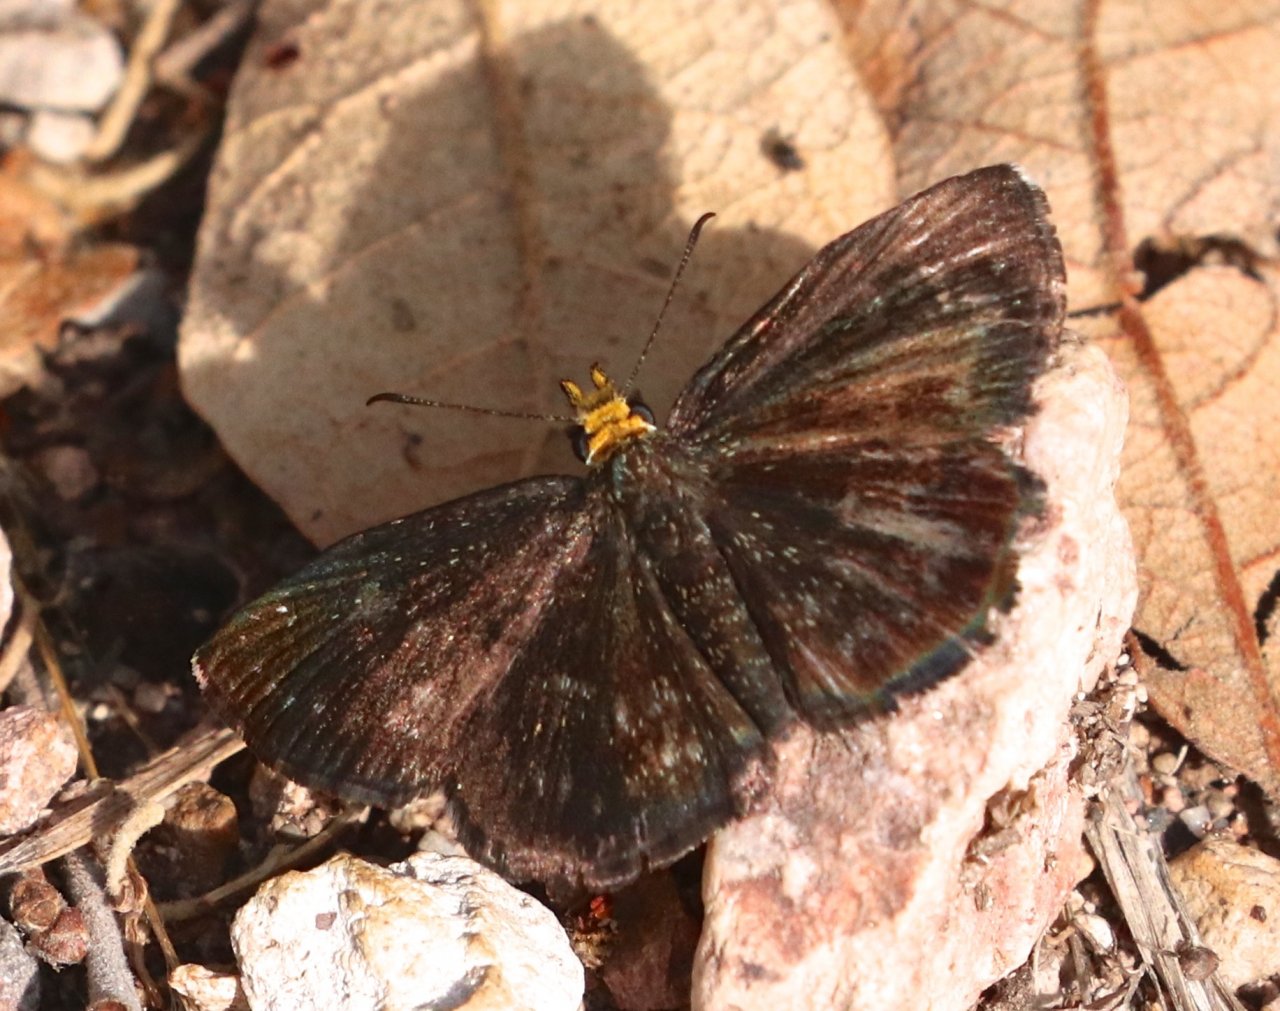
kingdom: Animalia
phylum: Arthropoda
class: Insecta
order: Lepidoptera
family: Hesperiidae
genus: Staphylus
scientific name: Staphylus ceos
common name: Golden-headed Scallopwing
